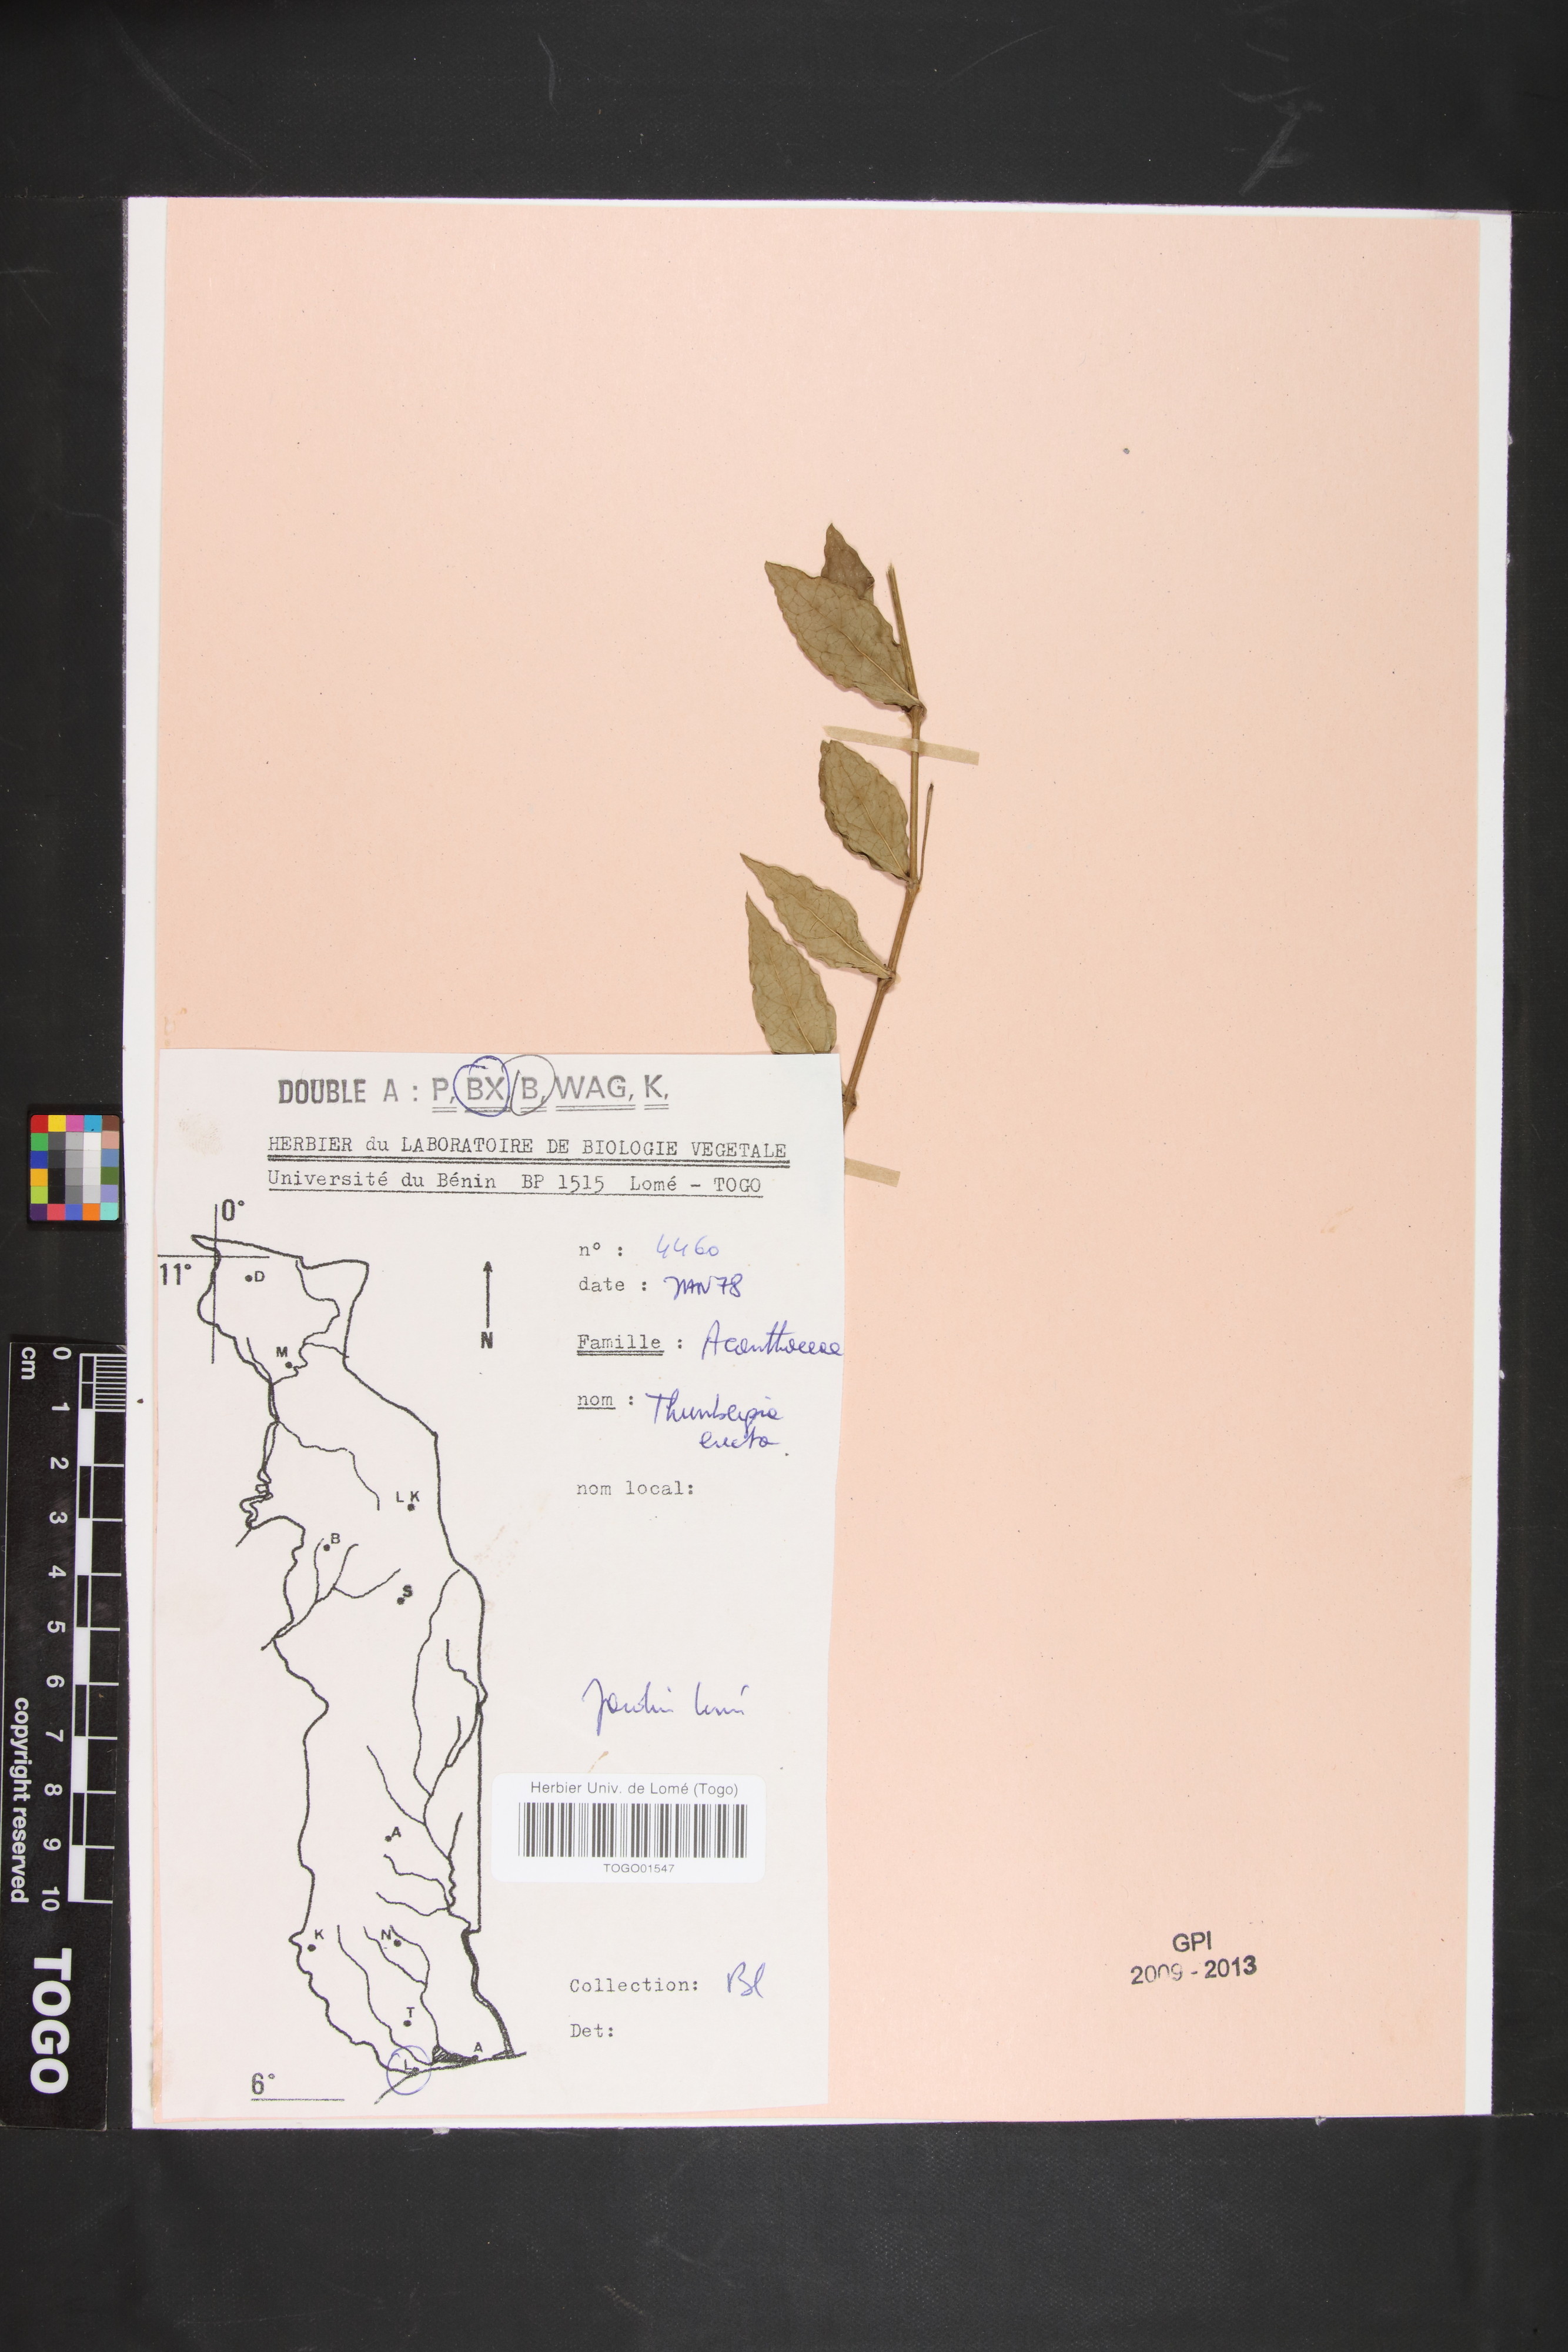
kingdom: Plantae
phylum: Tracheophyta
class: Magnoliopsida
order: Lamiales
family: Acanthaceae
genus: Thunbergia
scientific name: Thunbergia erecta
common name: Bush clockvine
